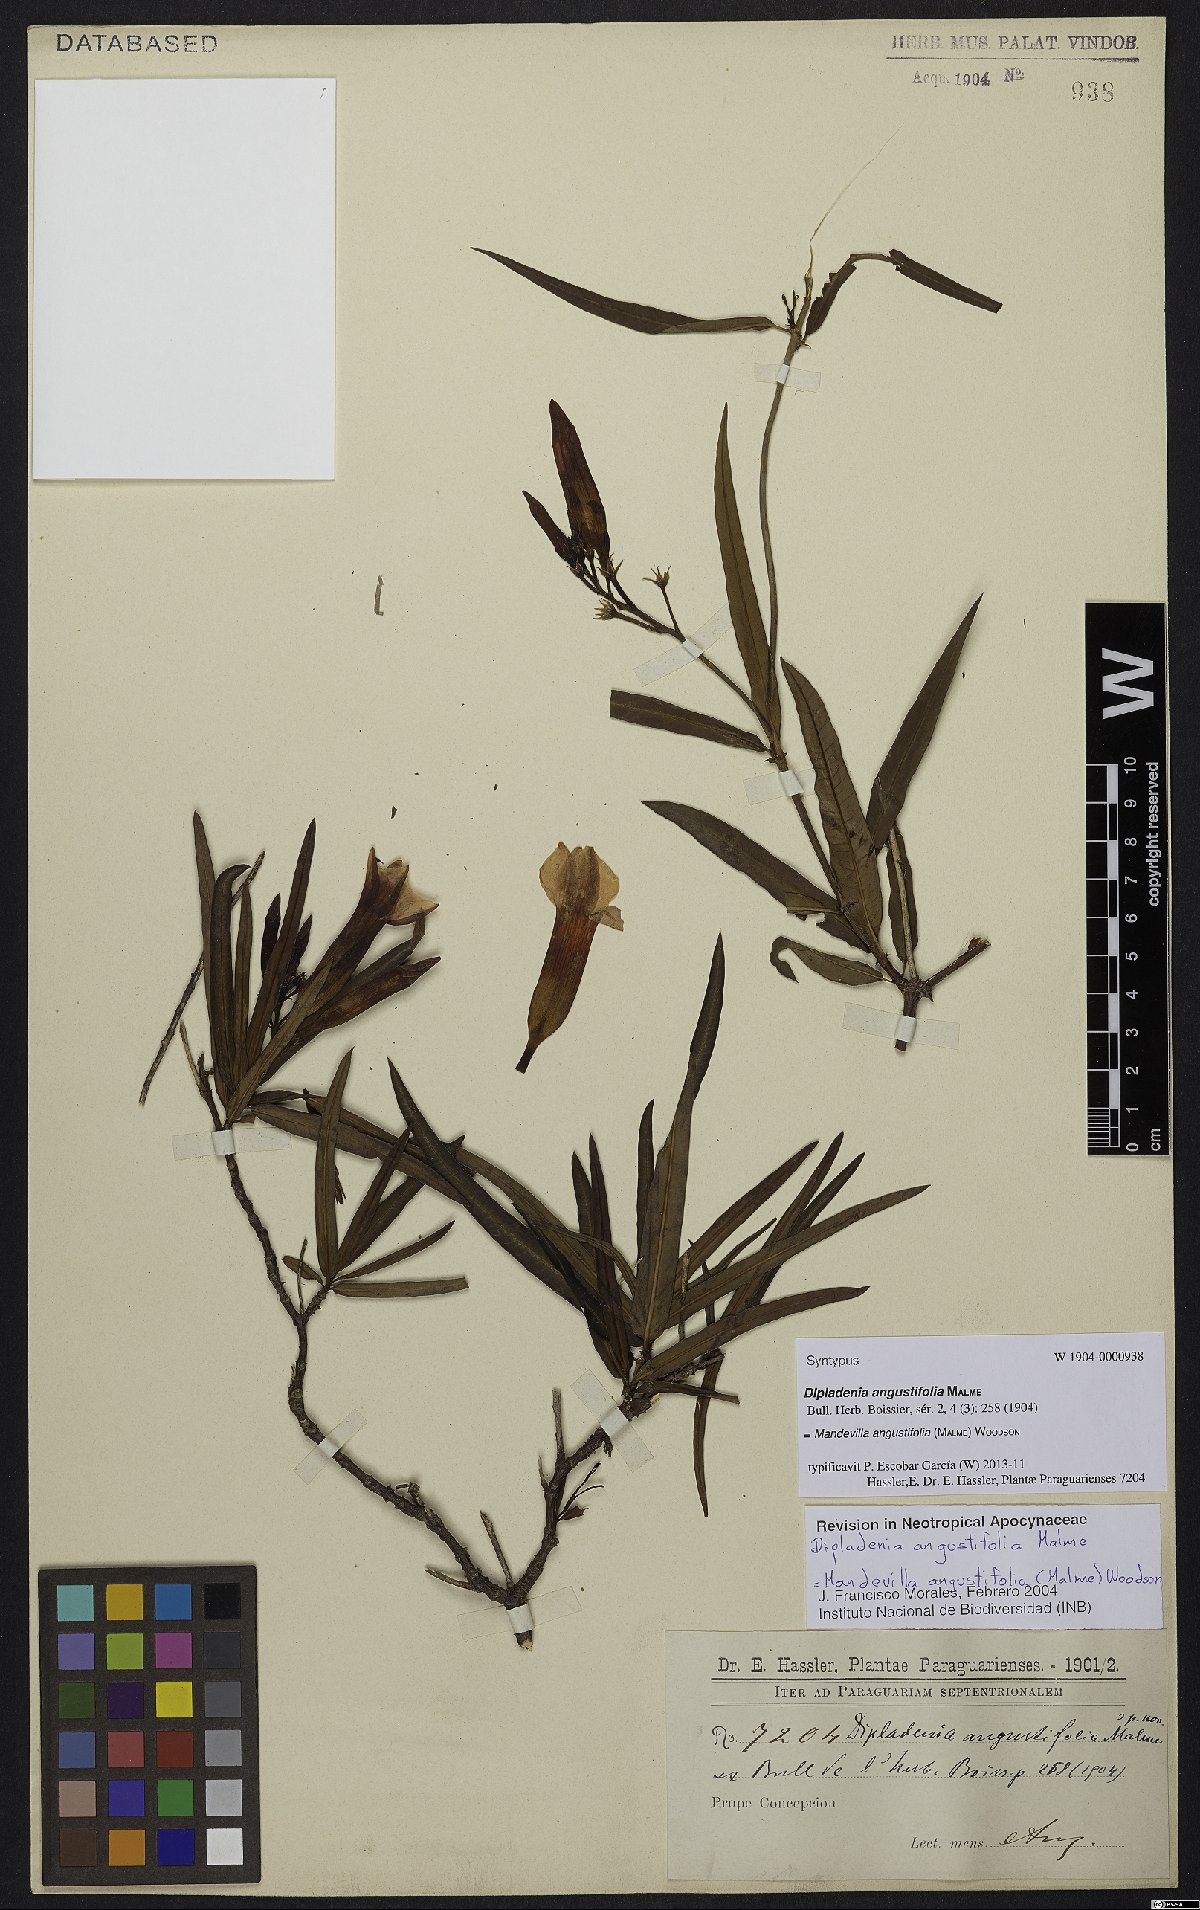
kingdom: Plantae
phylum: Tracheophyta
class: Magnoliopsida
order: Gentianales
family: Apocynaceae
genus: Mandevilla
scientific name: Mandevilla angustifolia
